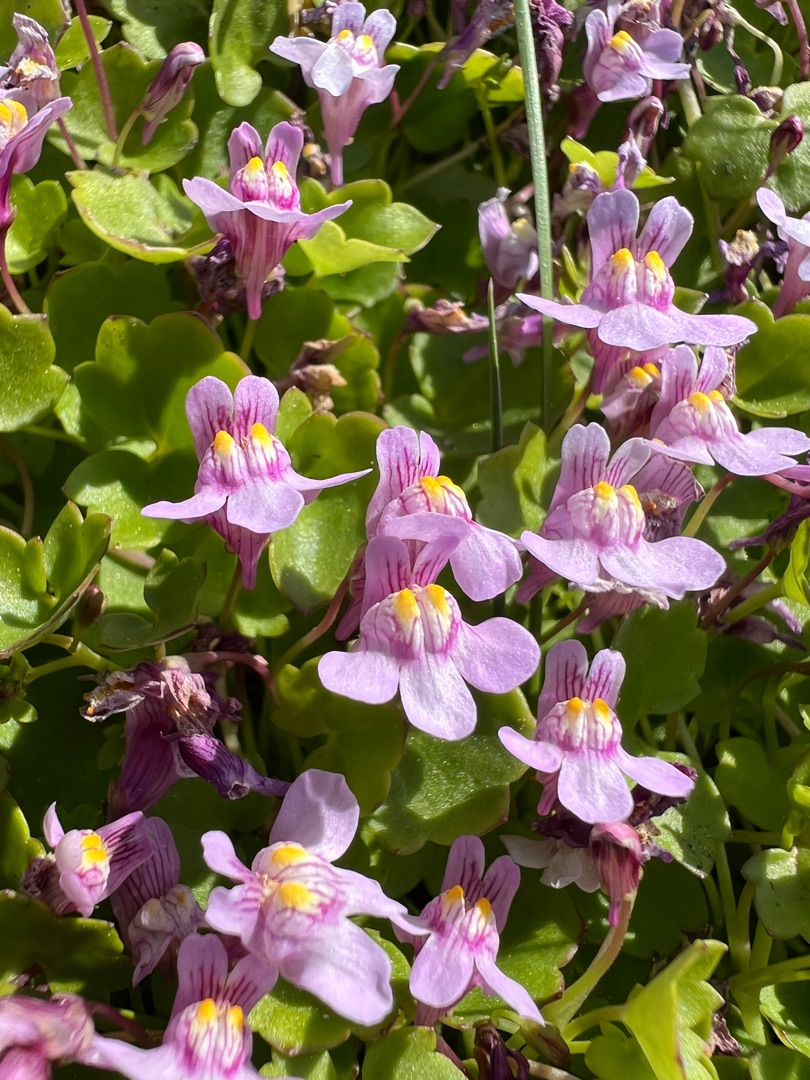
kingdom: Plantae
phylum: Tracheophyta
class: Magnoliopsida
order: Lamiales
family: Plantaginaceae
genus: Cymbalaria
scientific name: Cymbalaria muralis
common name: Vedbend-torskemund
